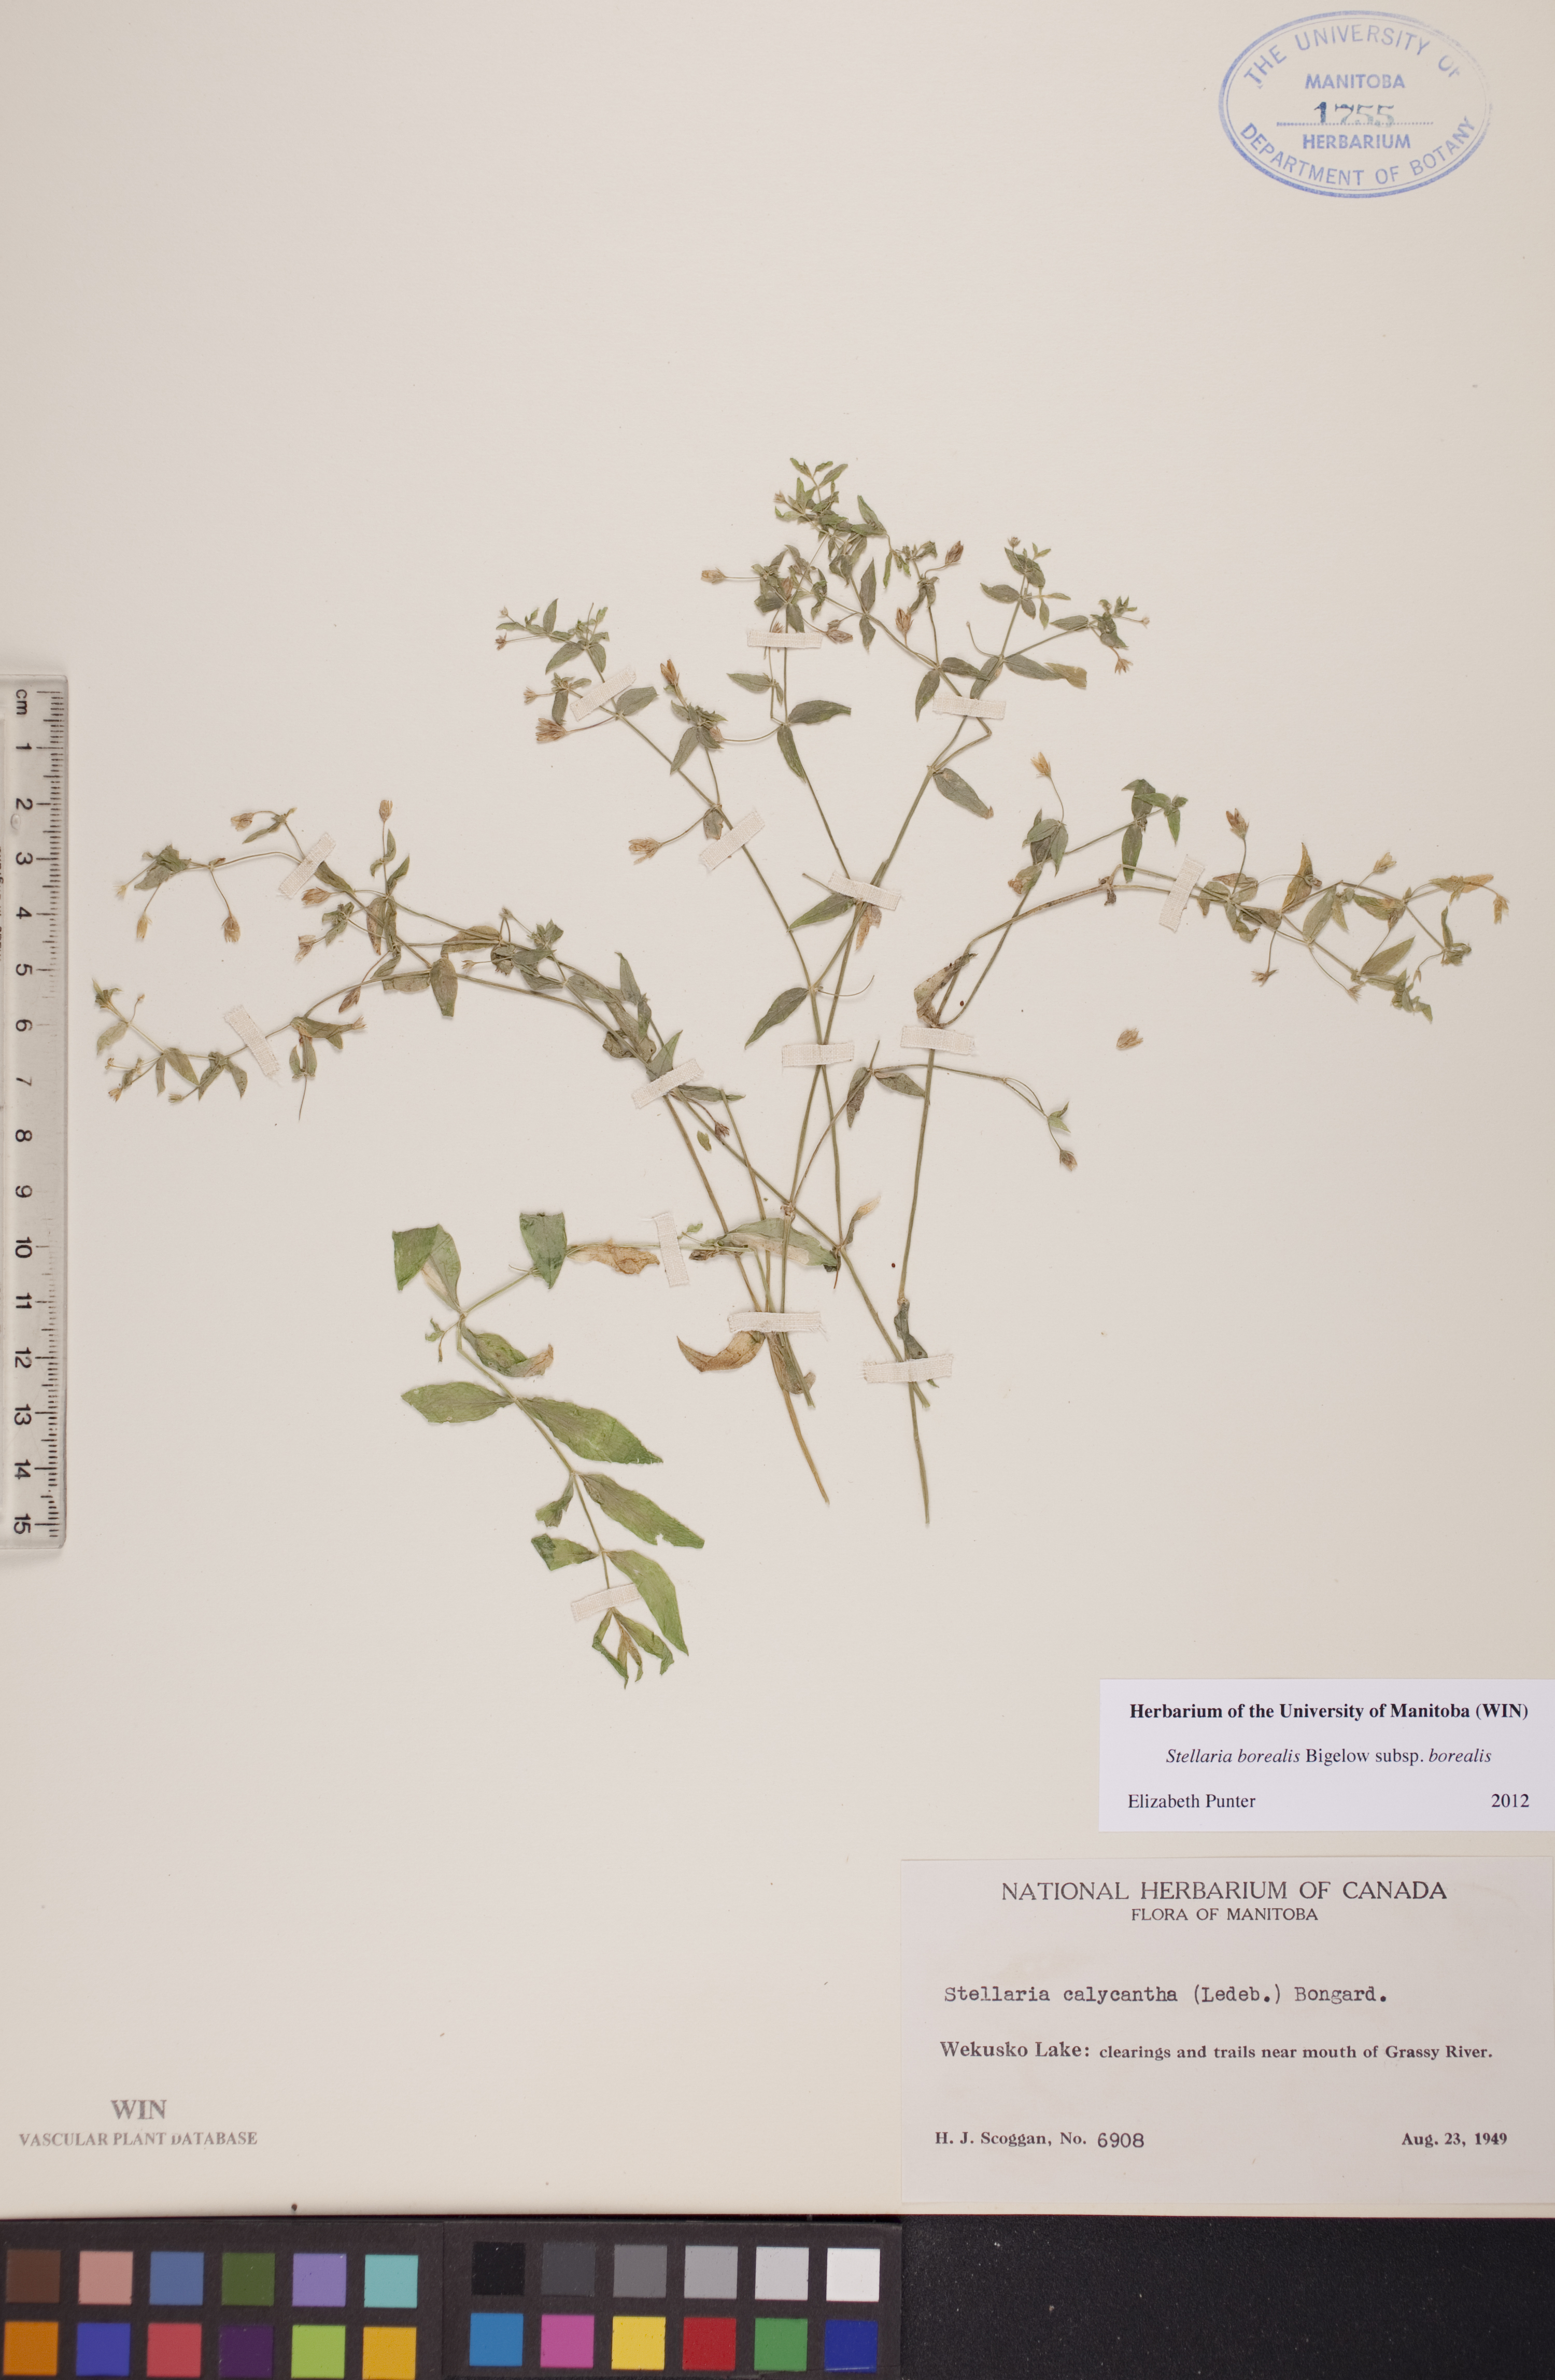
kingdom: Plantae
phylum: Tracheophyta
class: Magnoliopsida
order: Caryophyllales
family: Caryophyllaceae
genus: Stellaria
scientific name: Stellaria borealis
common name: Boreal starwort
